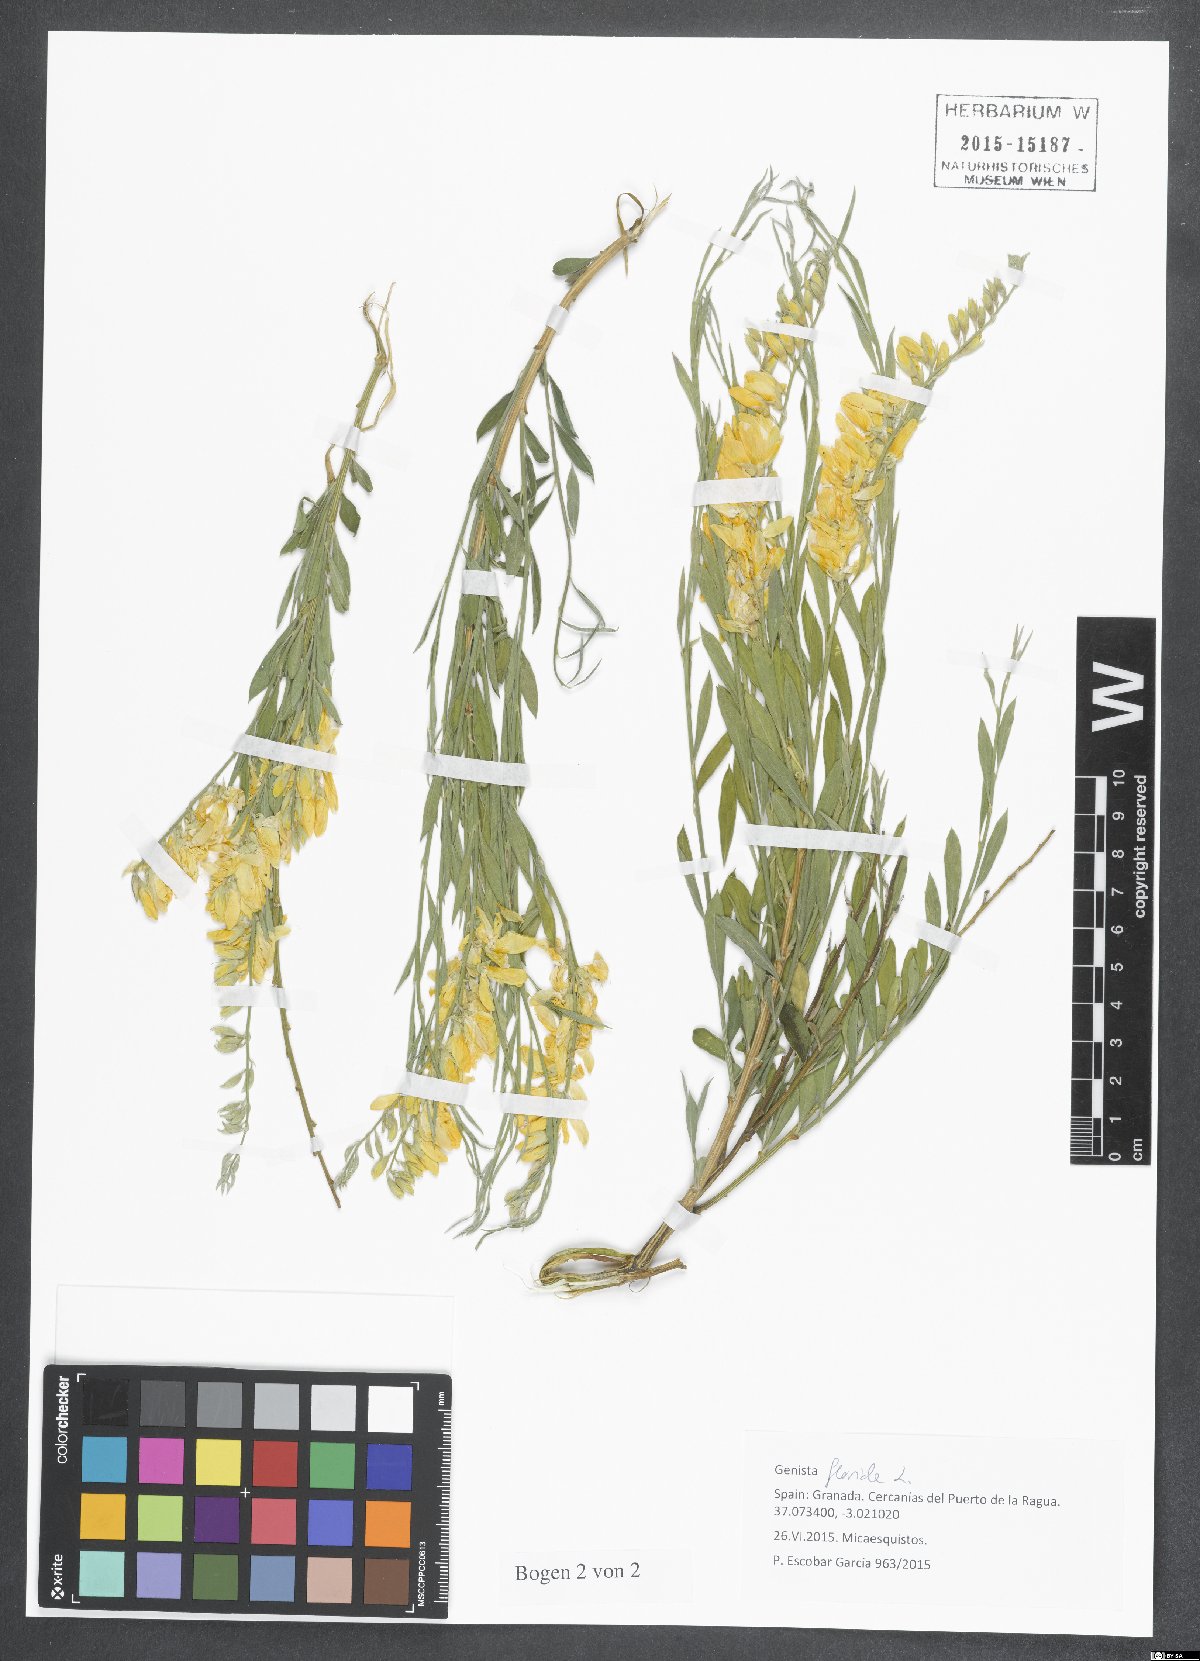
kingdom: Plantae
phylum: Tracheophyta
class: Magnoliopsida
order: Fabales
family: Fabaceae
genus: Genista
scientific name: Genista florida
